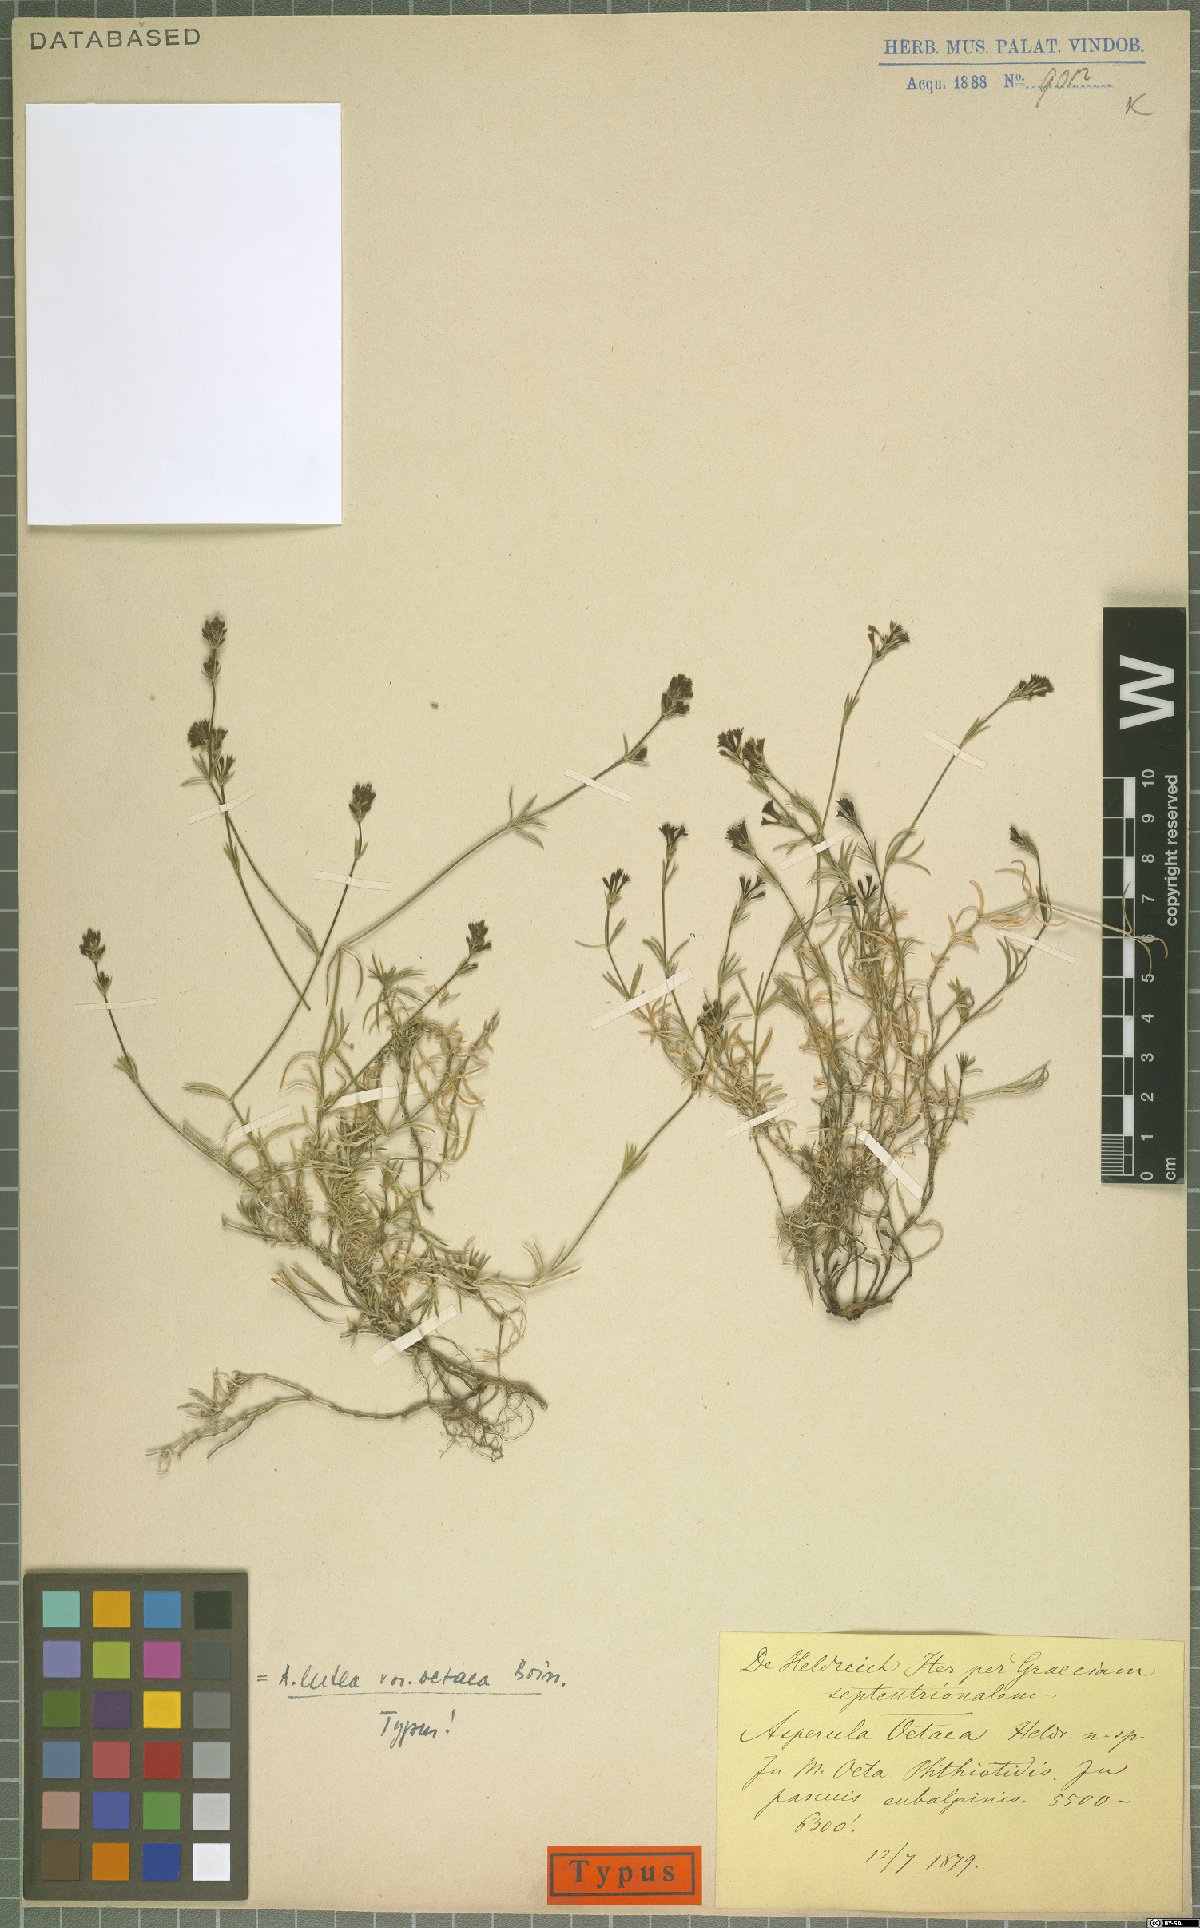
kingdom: Plantae
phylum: Tracheophyta
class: Magnoliopsida
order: Gentianales
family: Rubiaceae
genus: Cynanchica
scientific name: Cynanchica oetaea
